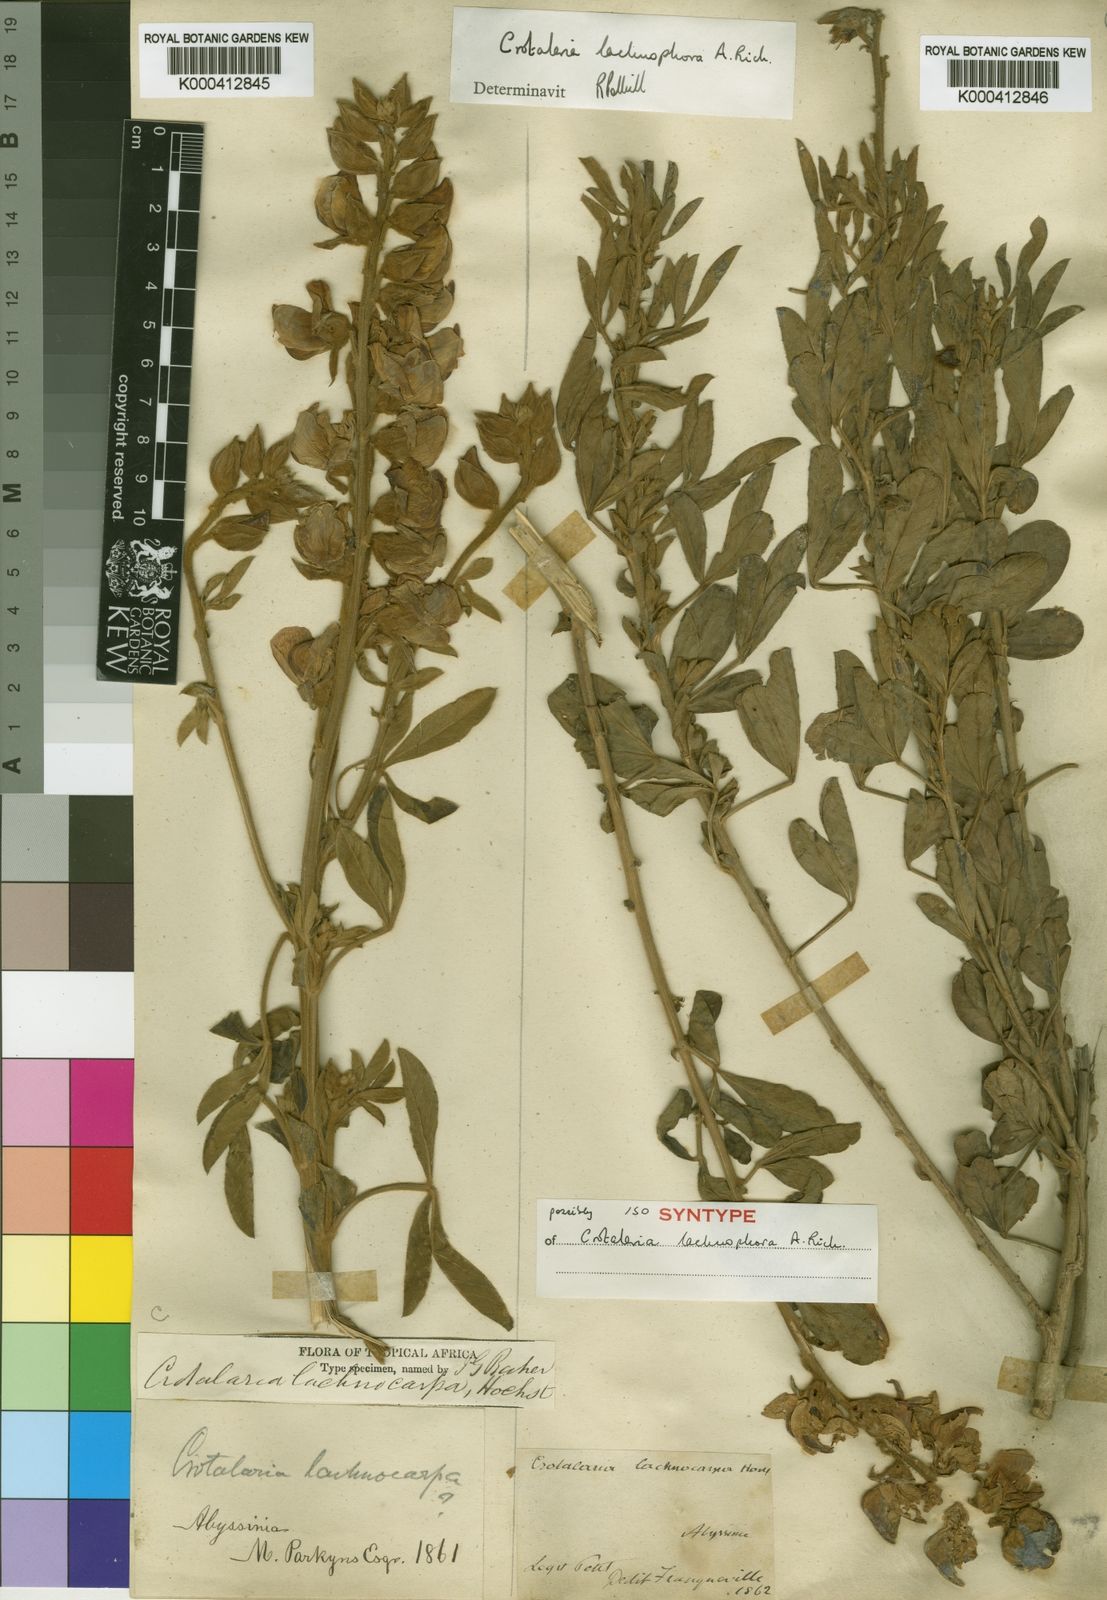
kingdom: Plantae
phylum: Tracheophyta
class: Magnoliopsida
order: Fabales
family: Fabaceae
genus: Crotalaria
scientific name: Crotalaria lachnophora
